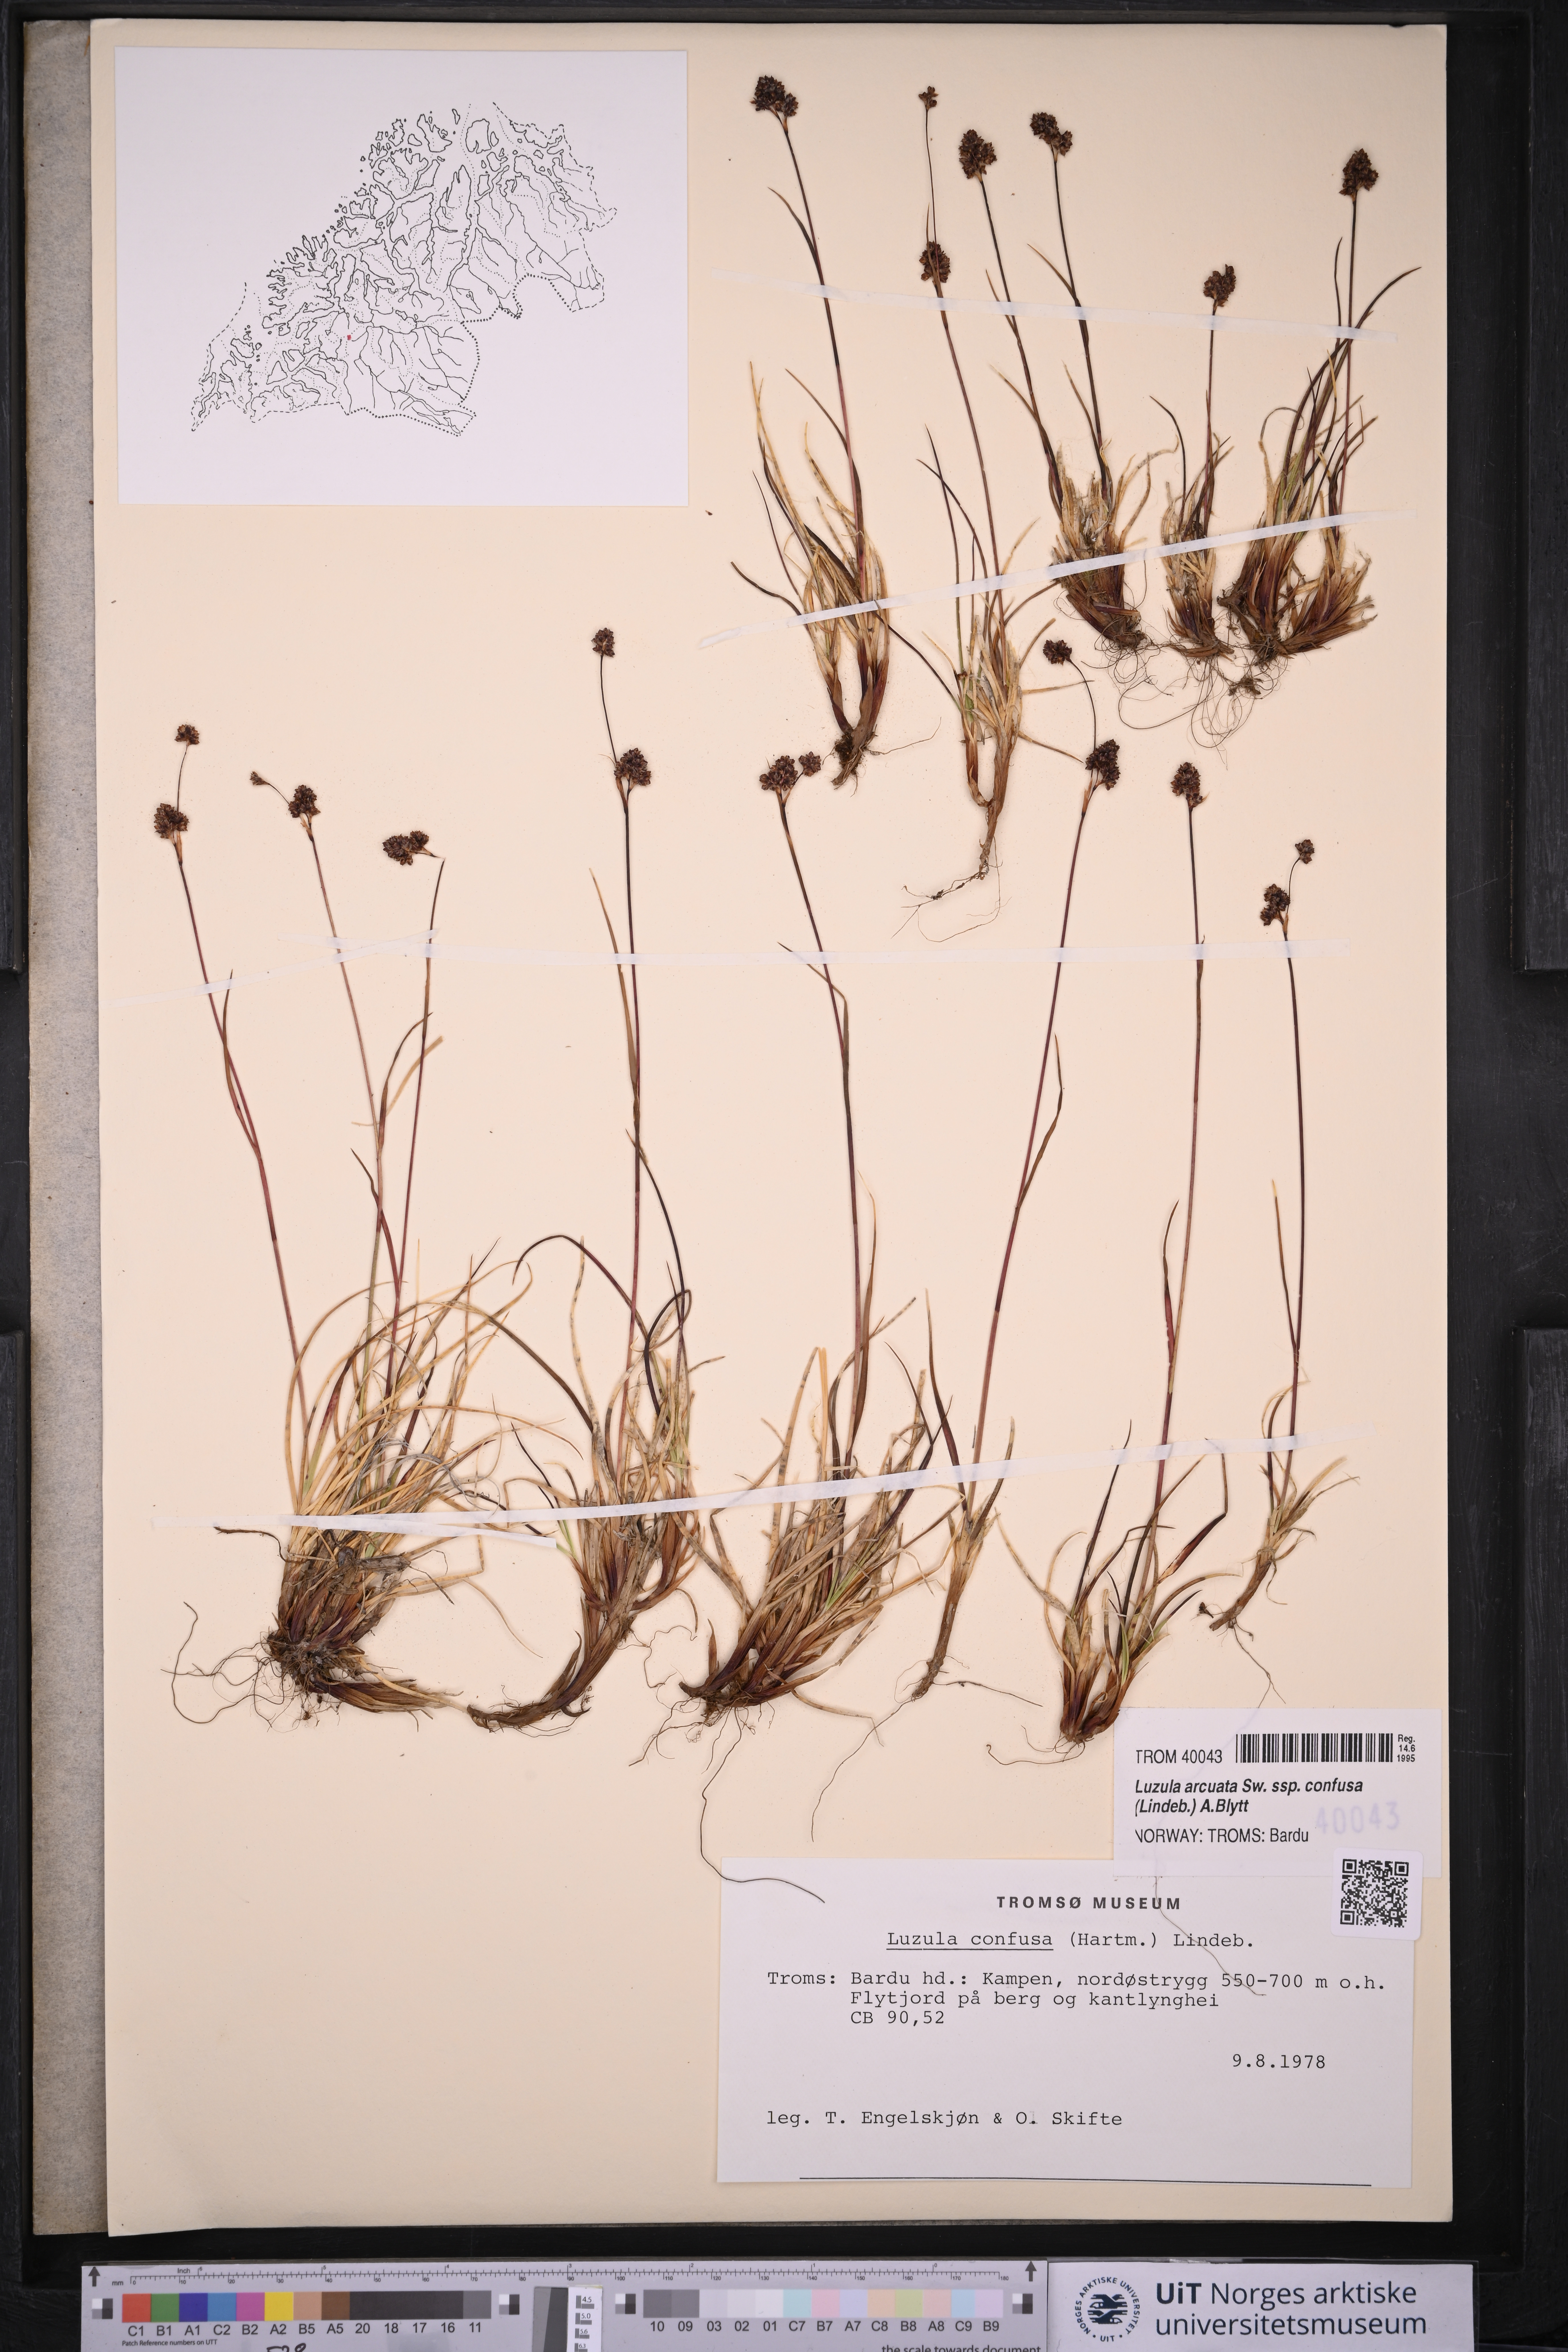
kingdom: Plantae
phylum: Tracheophyta
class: Liliopsida
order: Poales
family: Juncaceae
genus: Luzula
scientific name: Luzula confusa
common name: Northern wood rush
